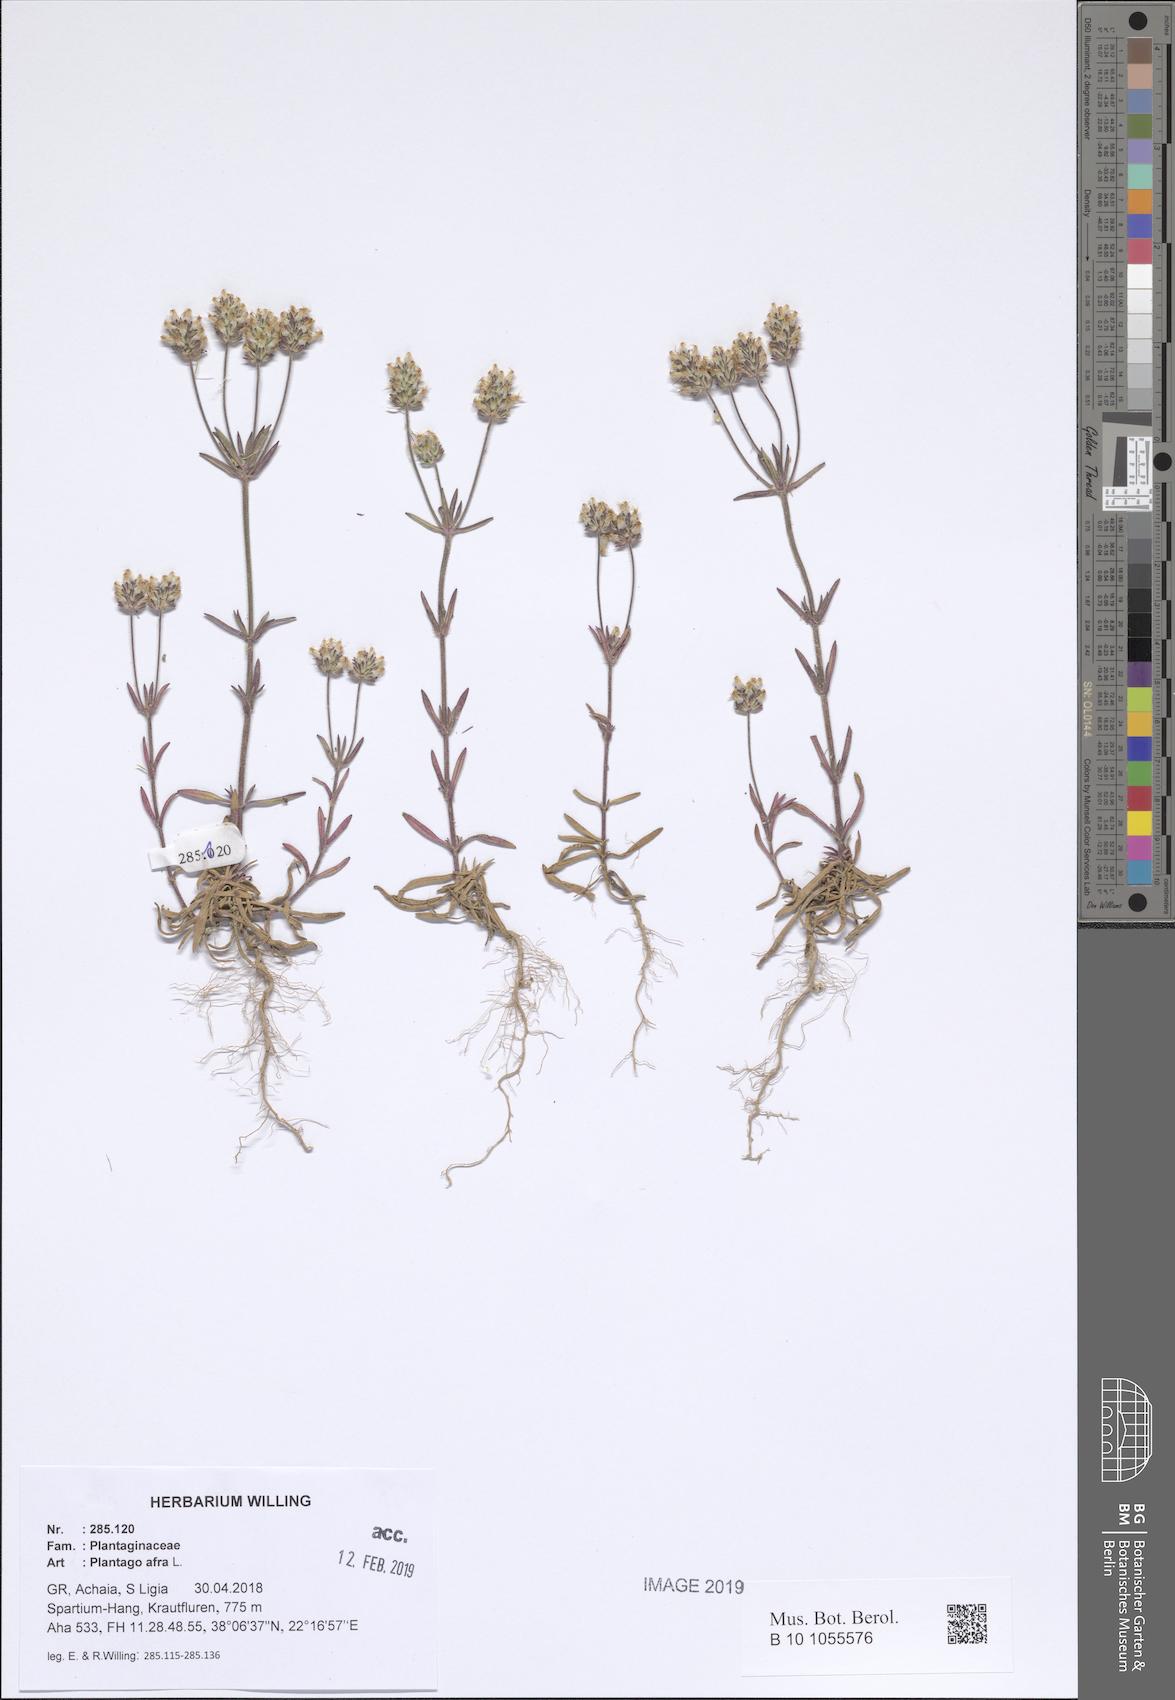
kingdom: Plantae
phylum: Tracheophyta
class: Magnoliopsida
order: Lamiales
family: Plantaginaceae
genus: Plantago
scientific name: Plantago afra
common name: Glandular plantain
